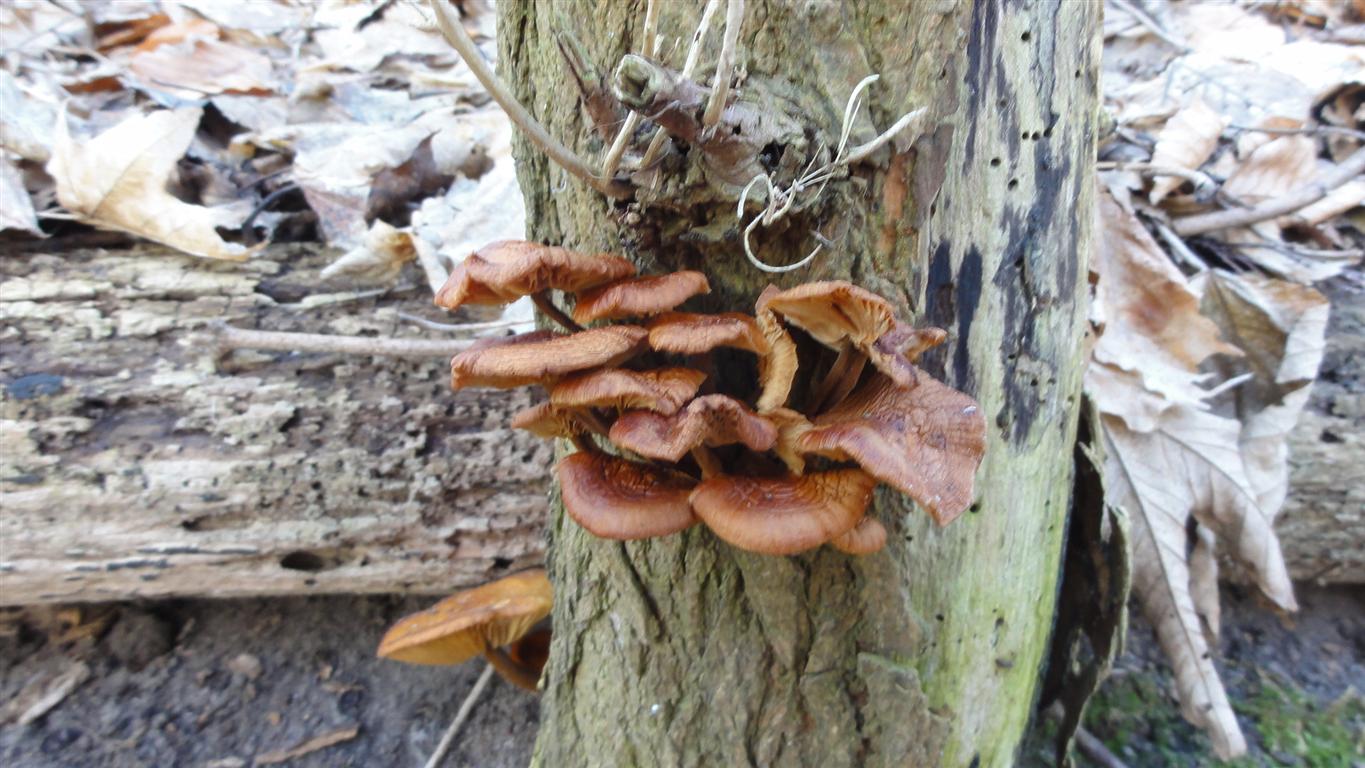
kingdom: Fungi
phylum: Basidiomycota
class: Agaricomycetes
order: Agaricales
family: Physalacriaceae
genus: Flammulina
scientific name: Flammulina velutipes
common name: gul fløjlsfod
